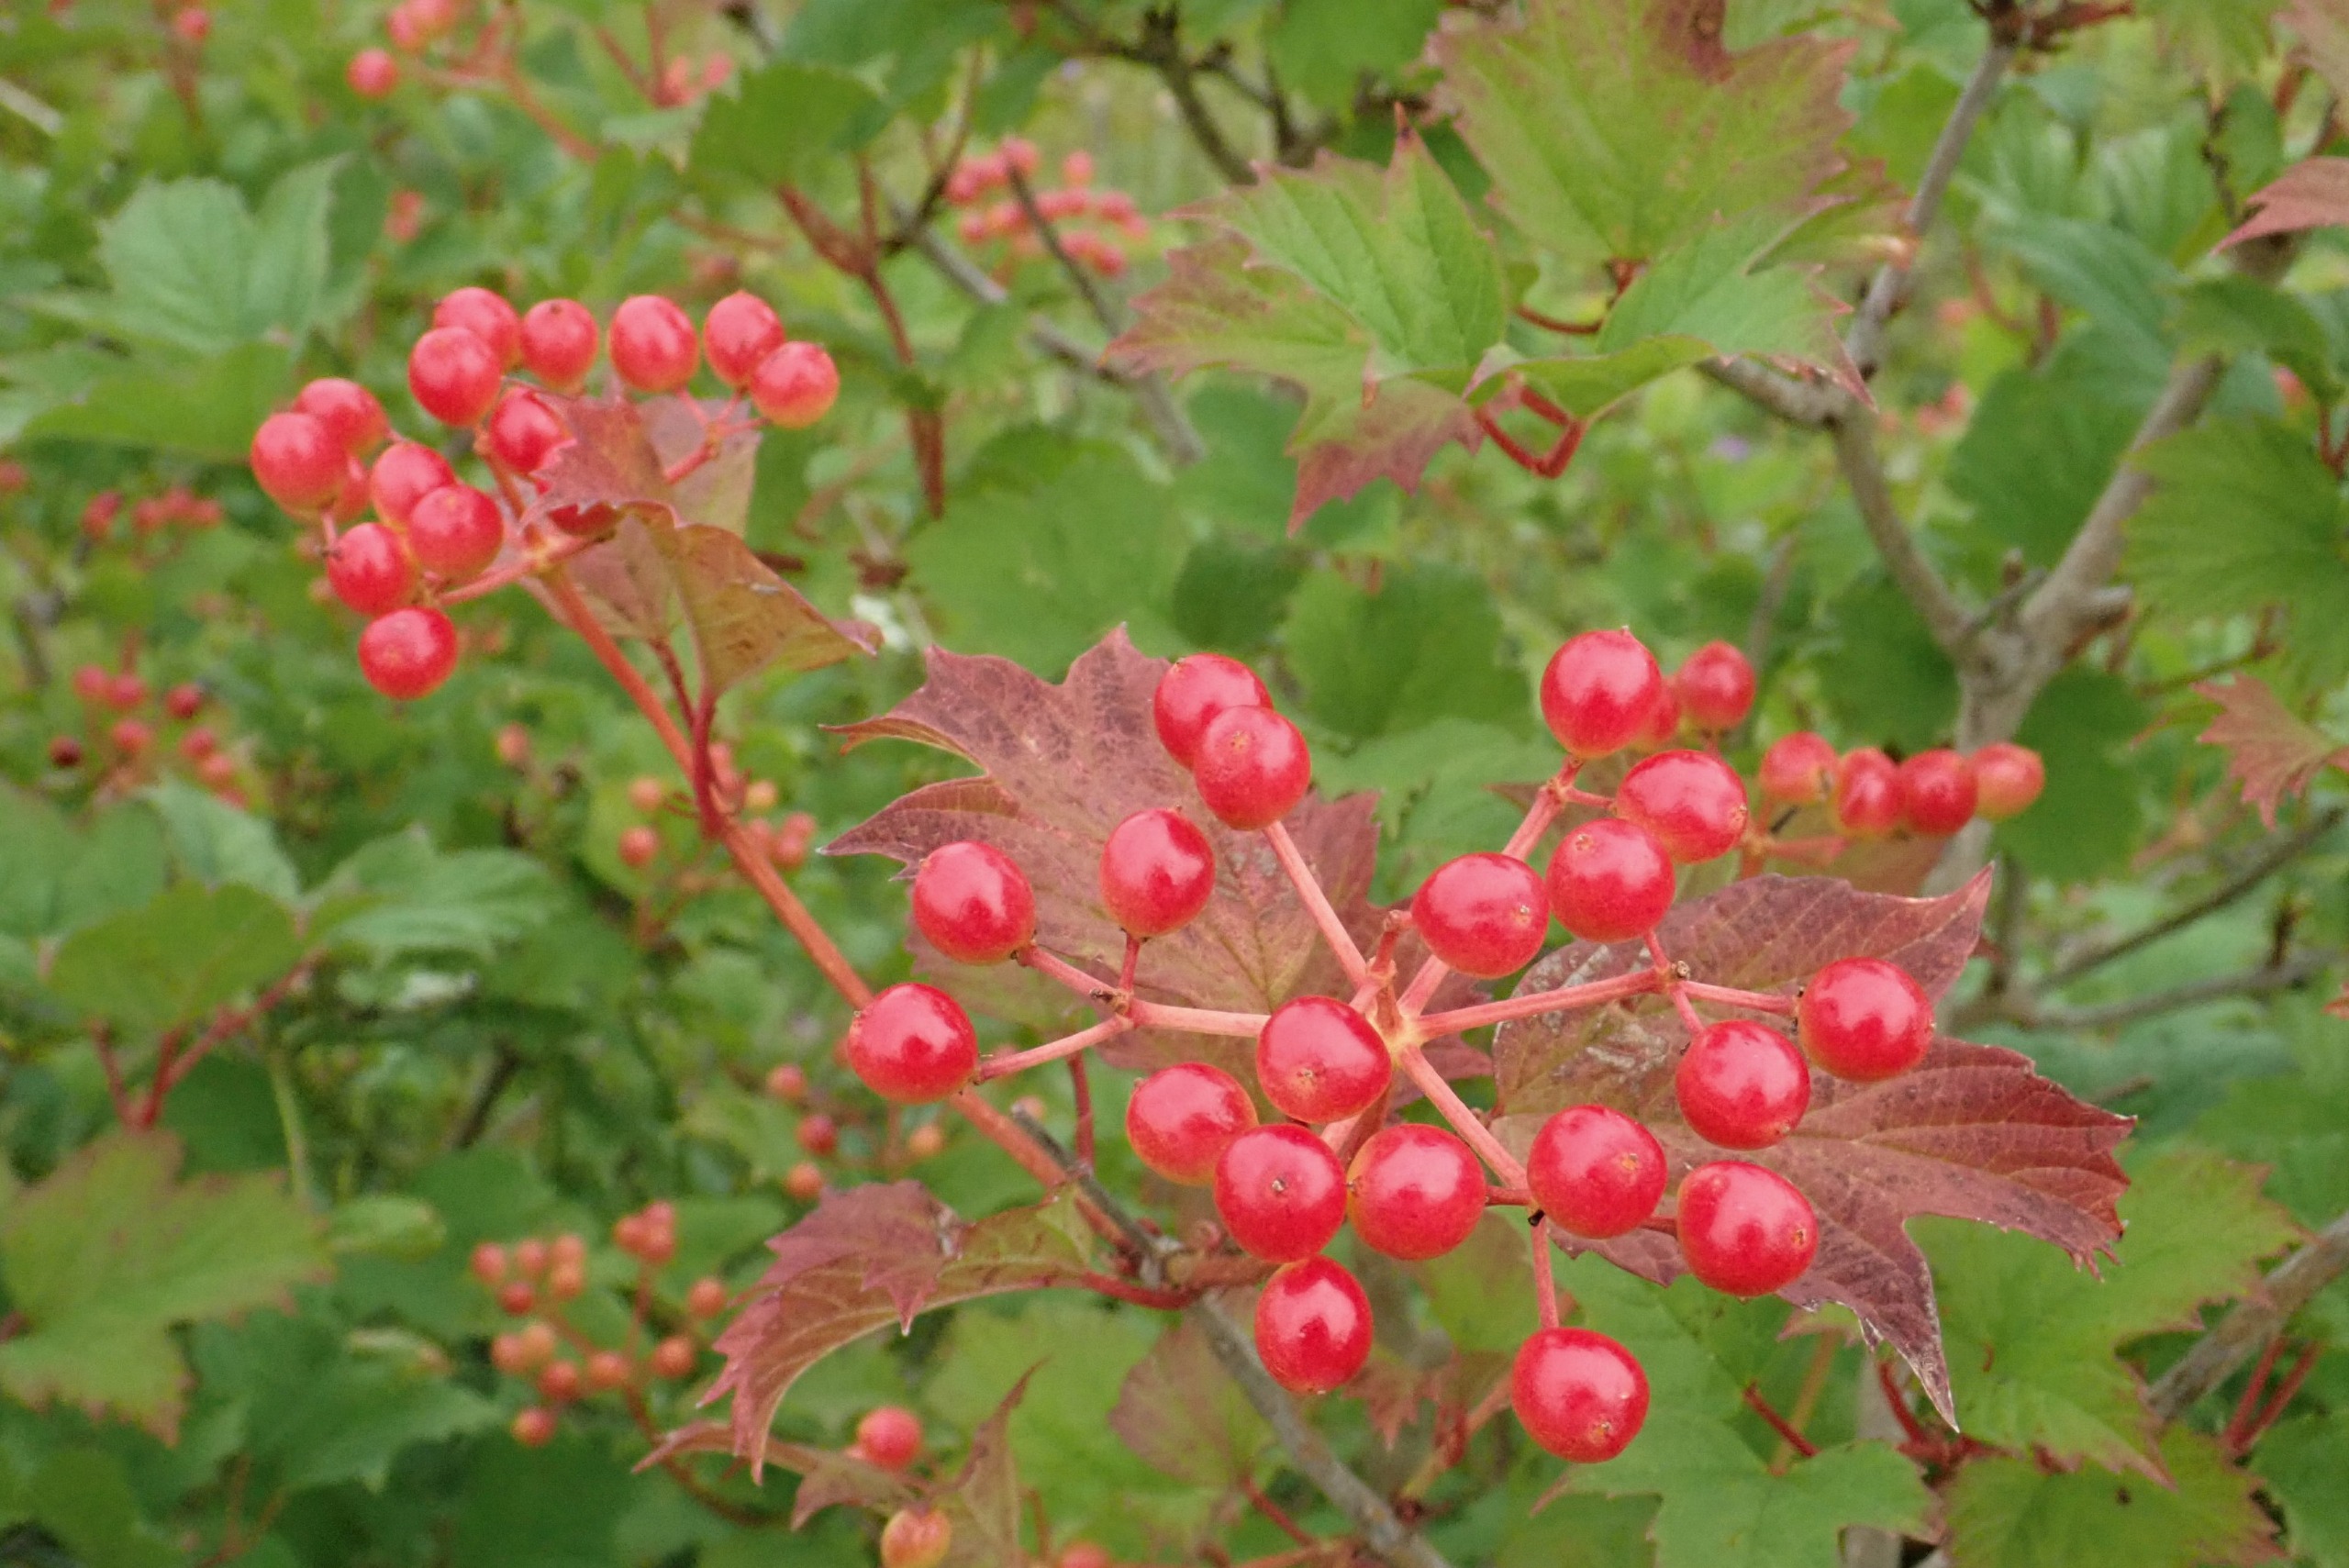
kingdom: Plantae
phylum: Tracheophyta
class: Magnoliopsida
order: Dipsacales
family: Viburnaceae
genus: Viburnum
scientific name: Viburnum opulus
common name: Kvalkved
